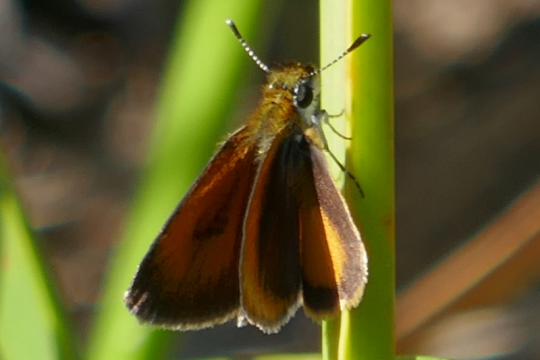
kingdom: Animalia
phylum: Arthropoda
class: Insecta
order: Lepidoptera
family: Hesperiidae
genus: Ancyloxypha
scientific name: Ancyloxypha numitor
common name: Least Skipper
